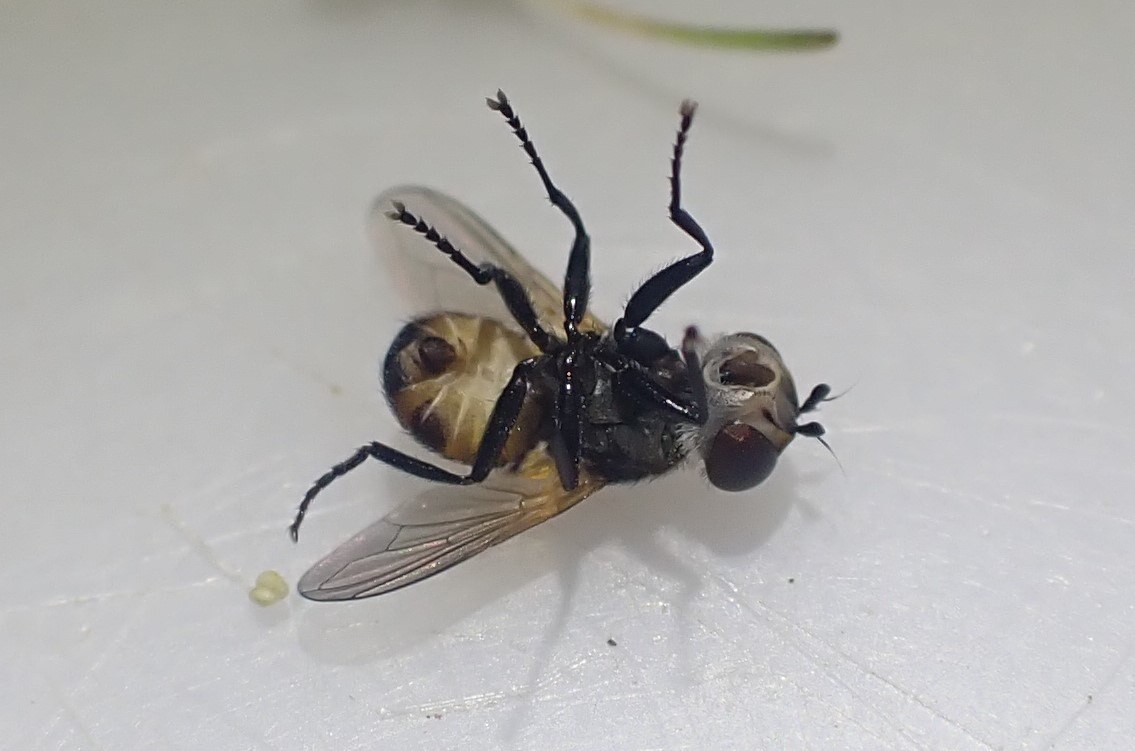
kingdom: Animalia
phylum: Arthropoda
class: Insecta
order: Diptera
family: Tachinidae
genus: Cistogaster
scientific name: Cistogaster globosa
